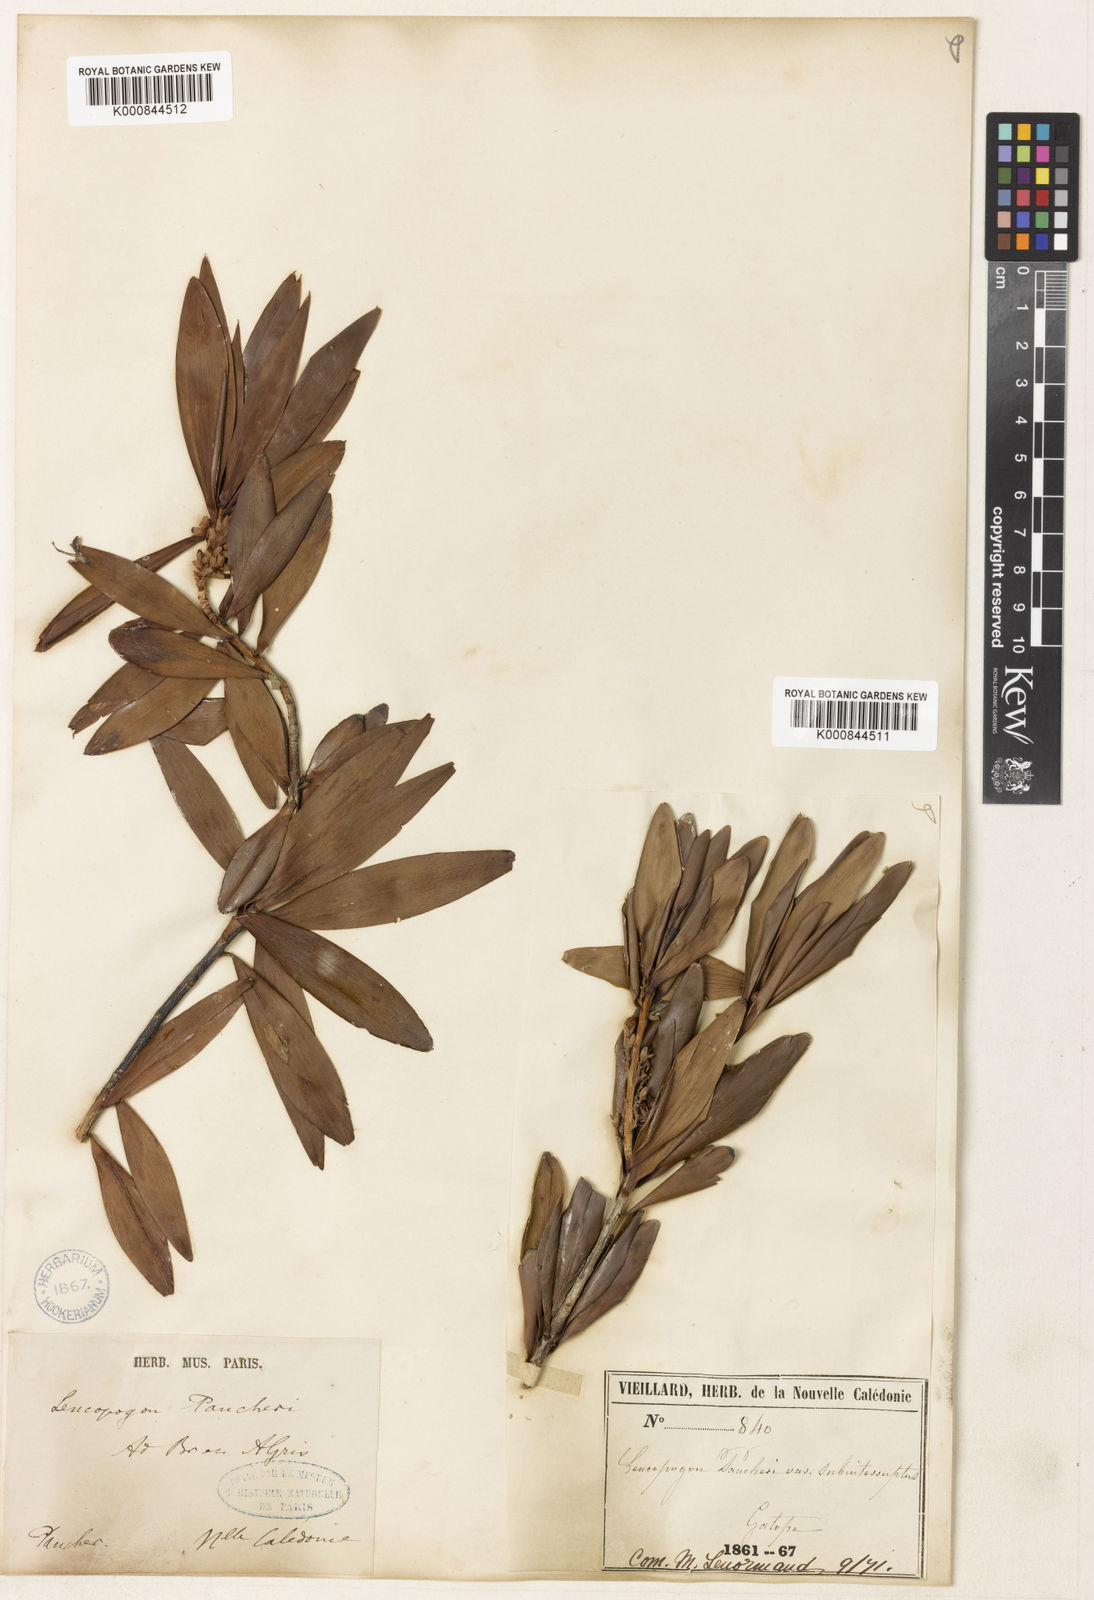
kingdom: Plantae
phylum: Tracheophyta
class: Magnoliopsida
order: Ericales
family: Ericaceae
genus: Styphelia
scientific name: Styphelia pancheri
